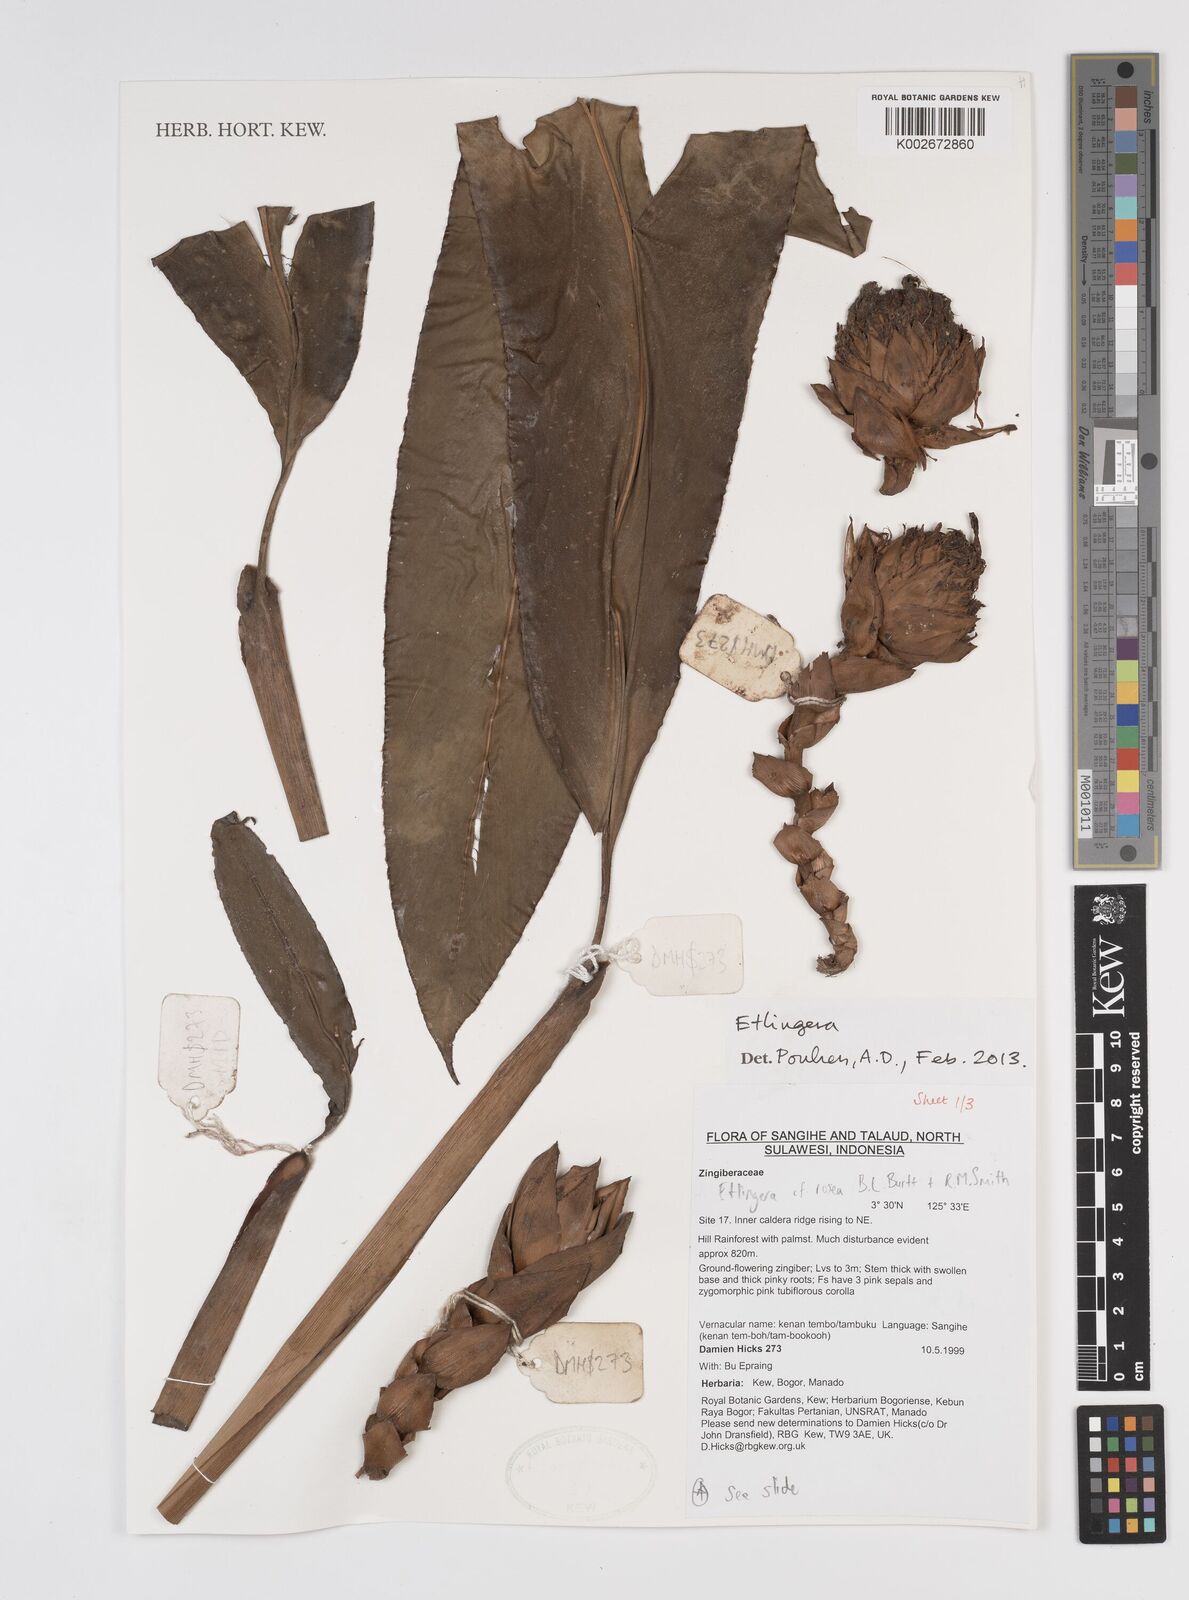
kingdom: Plantae
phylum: Tracheophyta
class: Liliopsida
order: Zingiberales
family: Zingiberaceae
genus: Etlingera
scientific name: Etlingera
